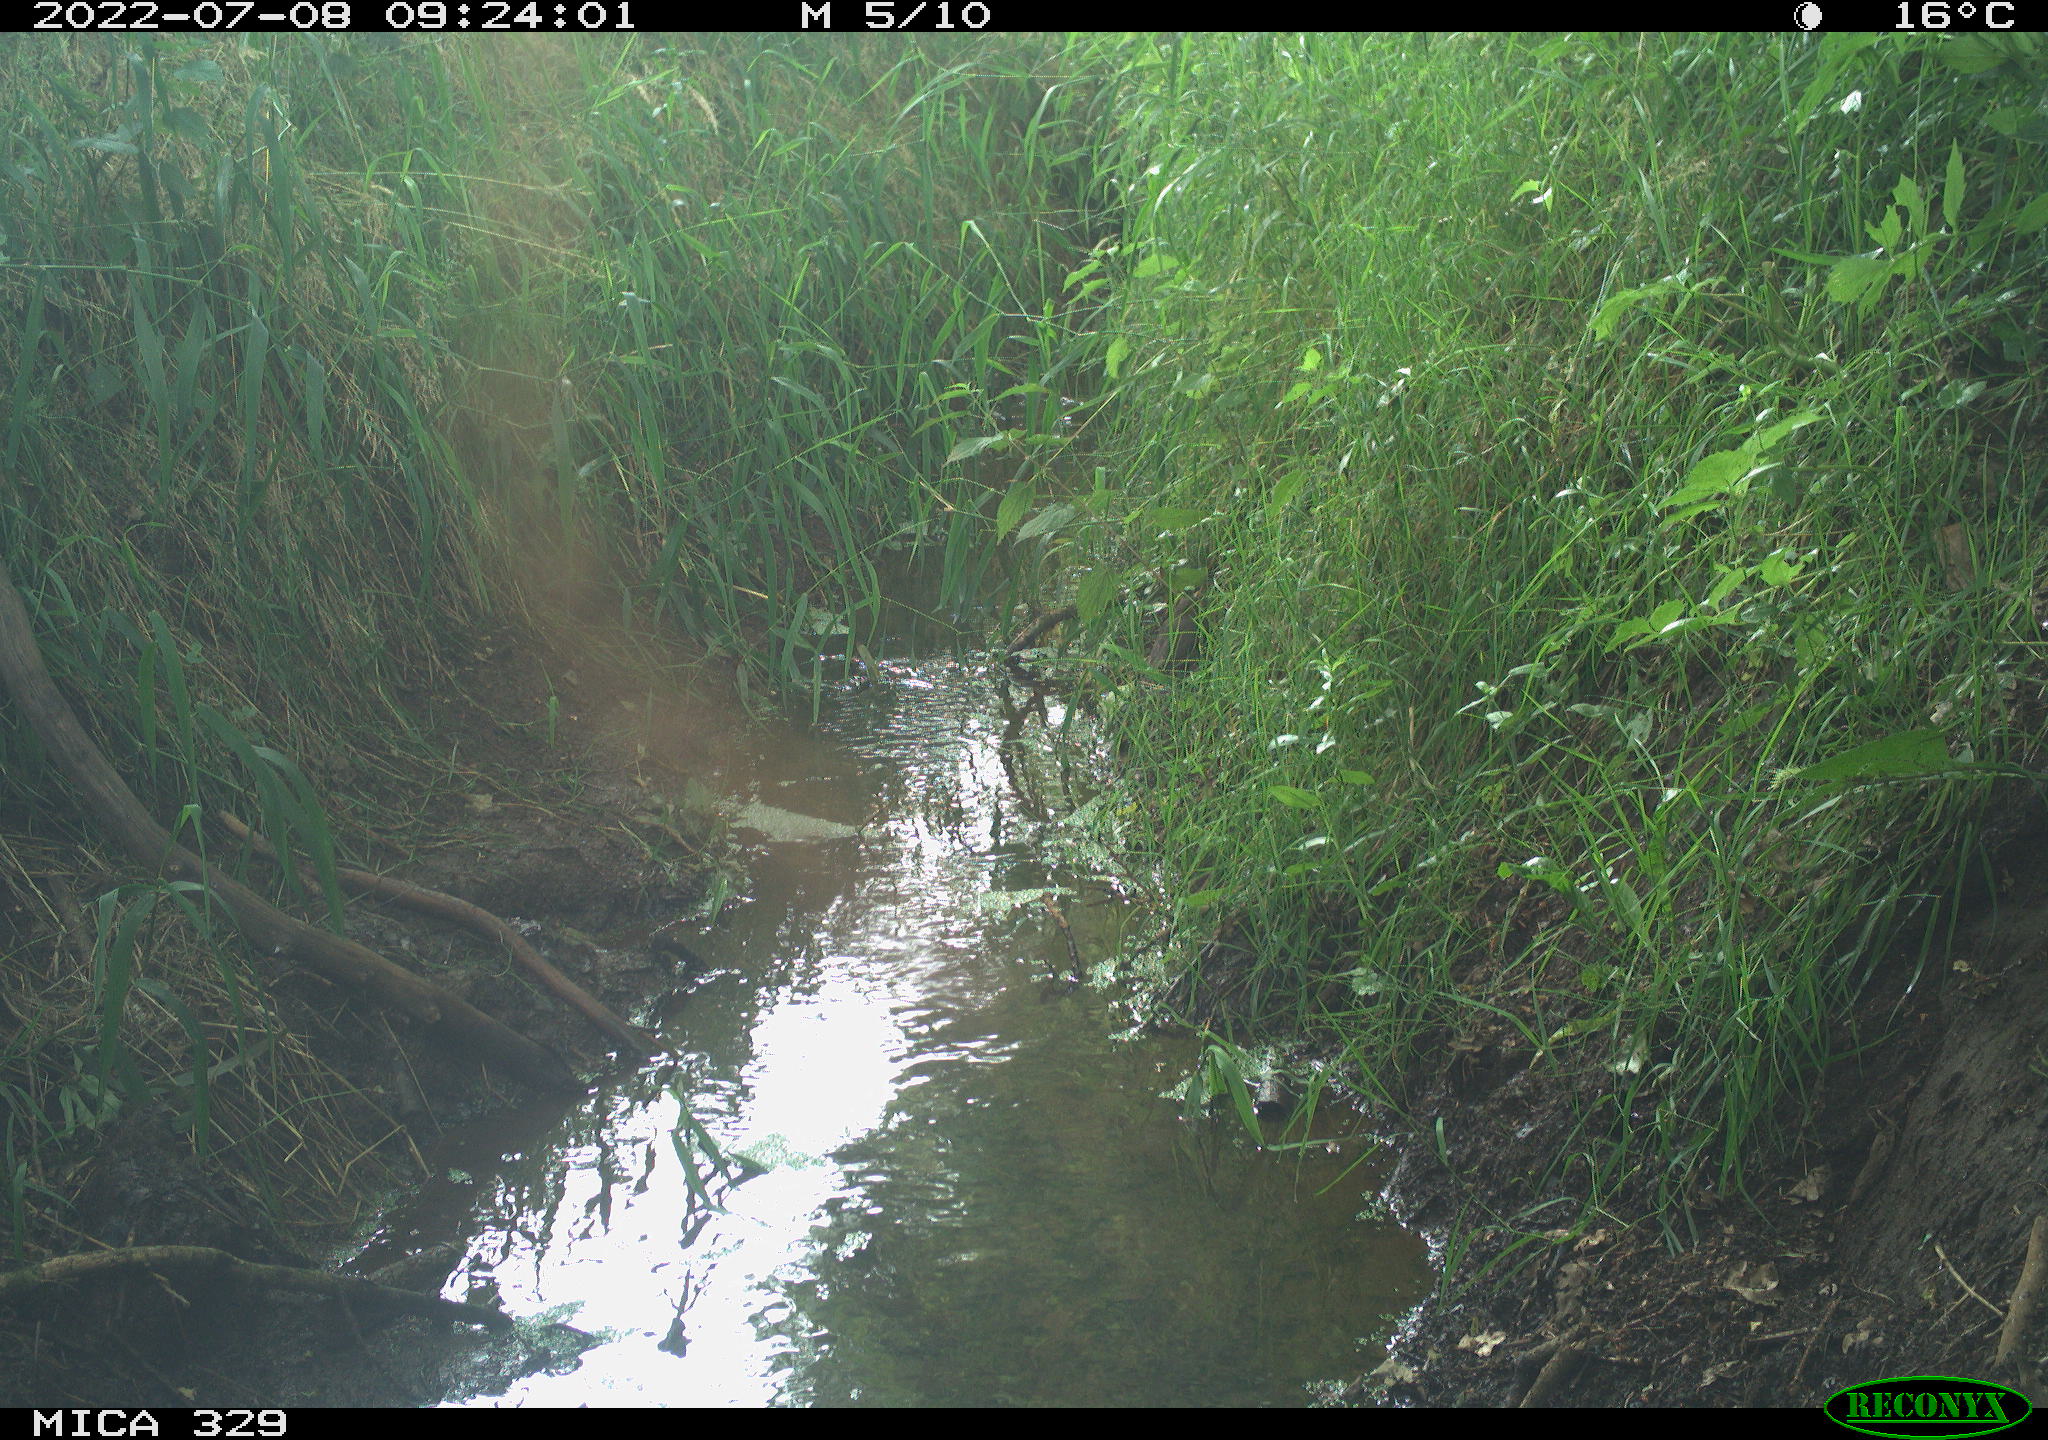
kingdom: Animalia
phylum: Chordata
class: Aves
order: Passeriformes
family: Turdidae
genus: Turdus
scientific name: Turdus merula
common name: Common blackbird
